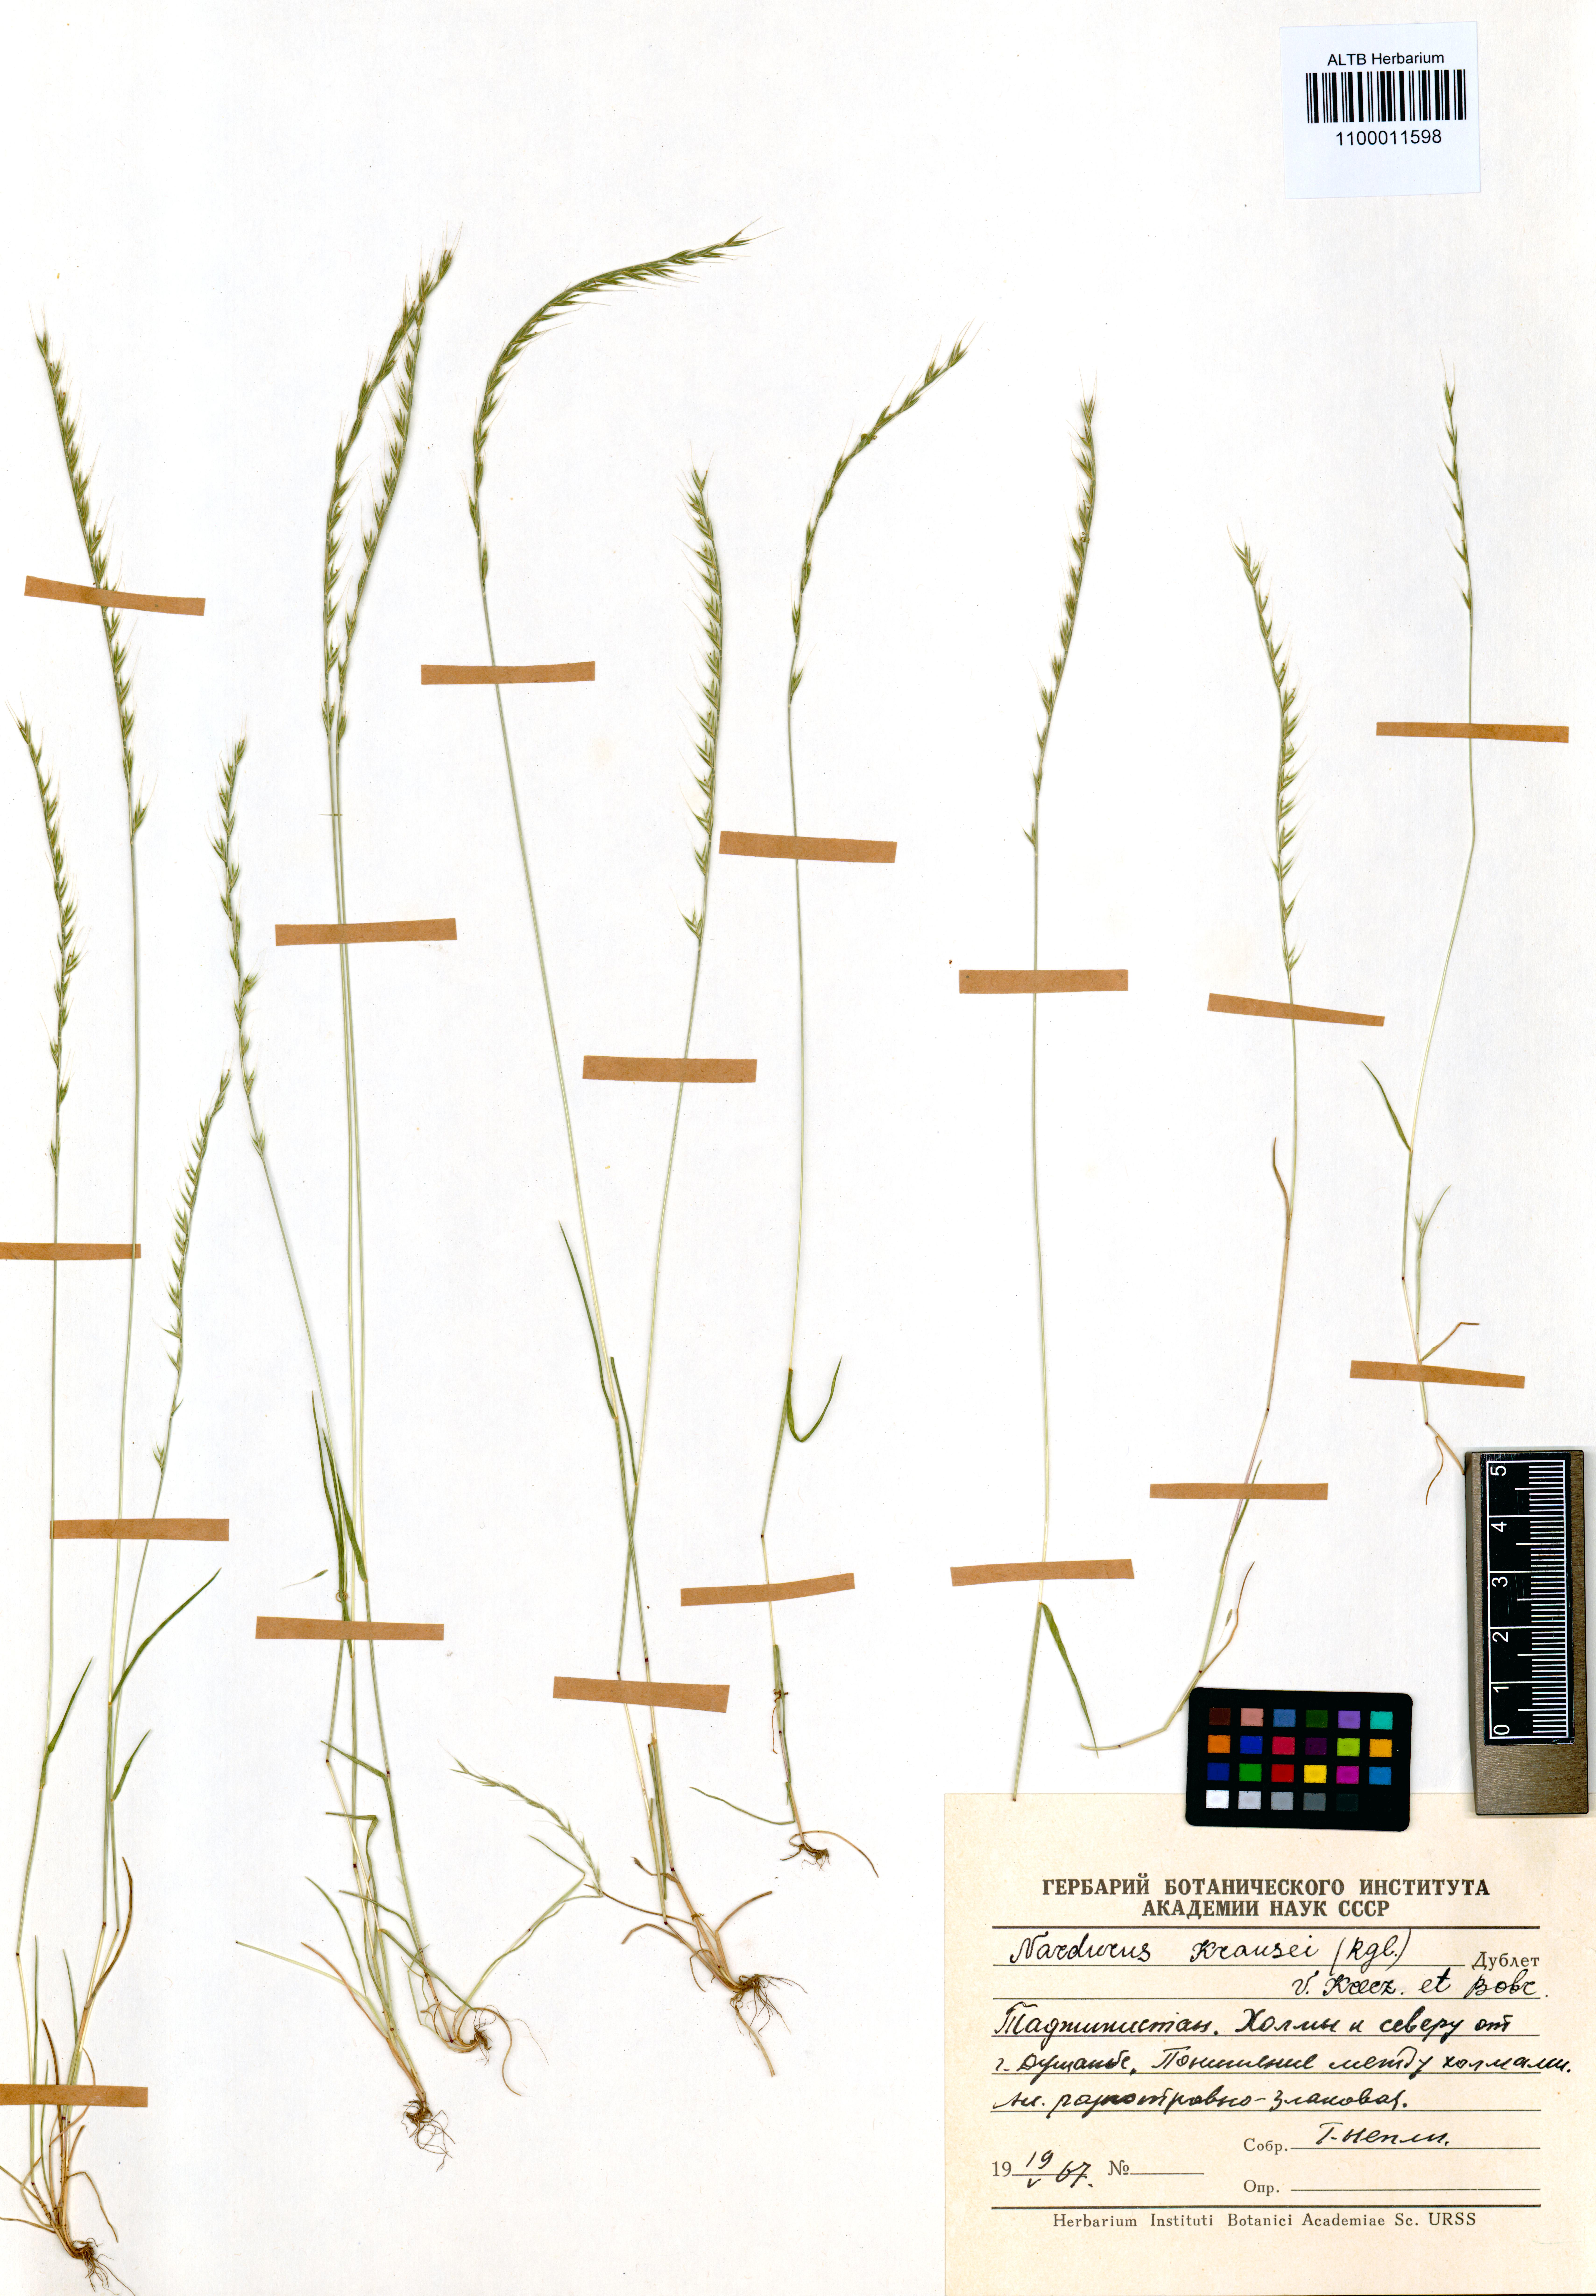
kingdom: Plantae
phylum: Tracheophyta
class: Liliopsida
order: Poales
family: Poaceae
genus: Festuca
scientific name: Festuca maritima
